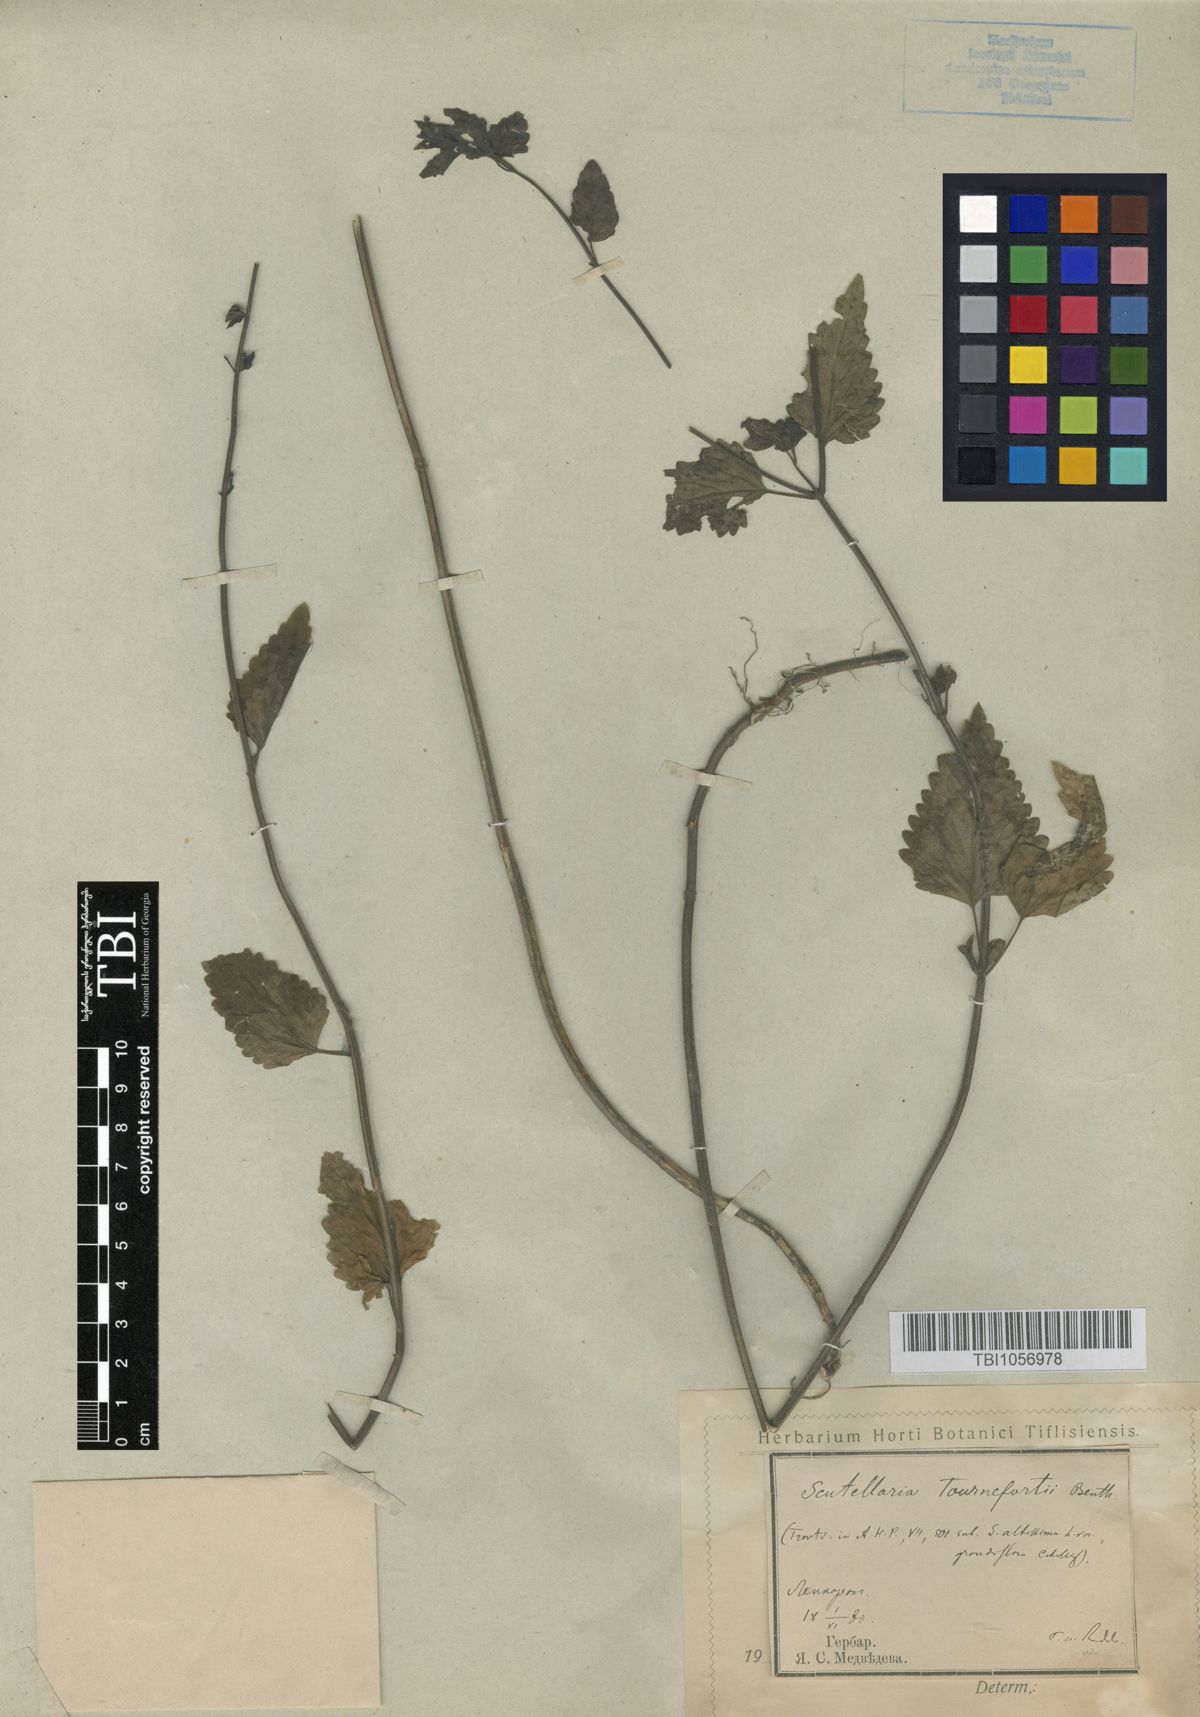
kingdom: Plantae
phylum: Tracheophyta
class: Magnoliopsida
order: Lamiales
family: Lamiaceae
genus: Scutellaria
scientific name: Scutellaria tournefortii
